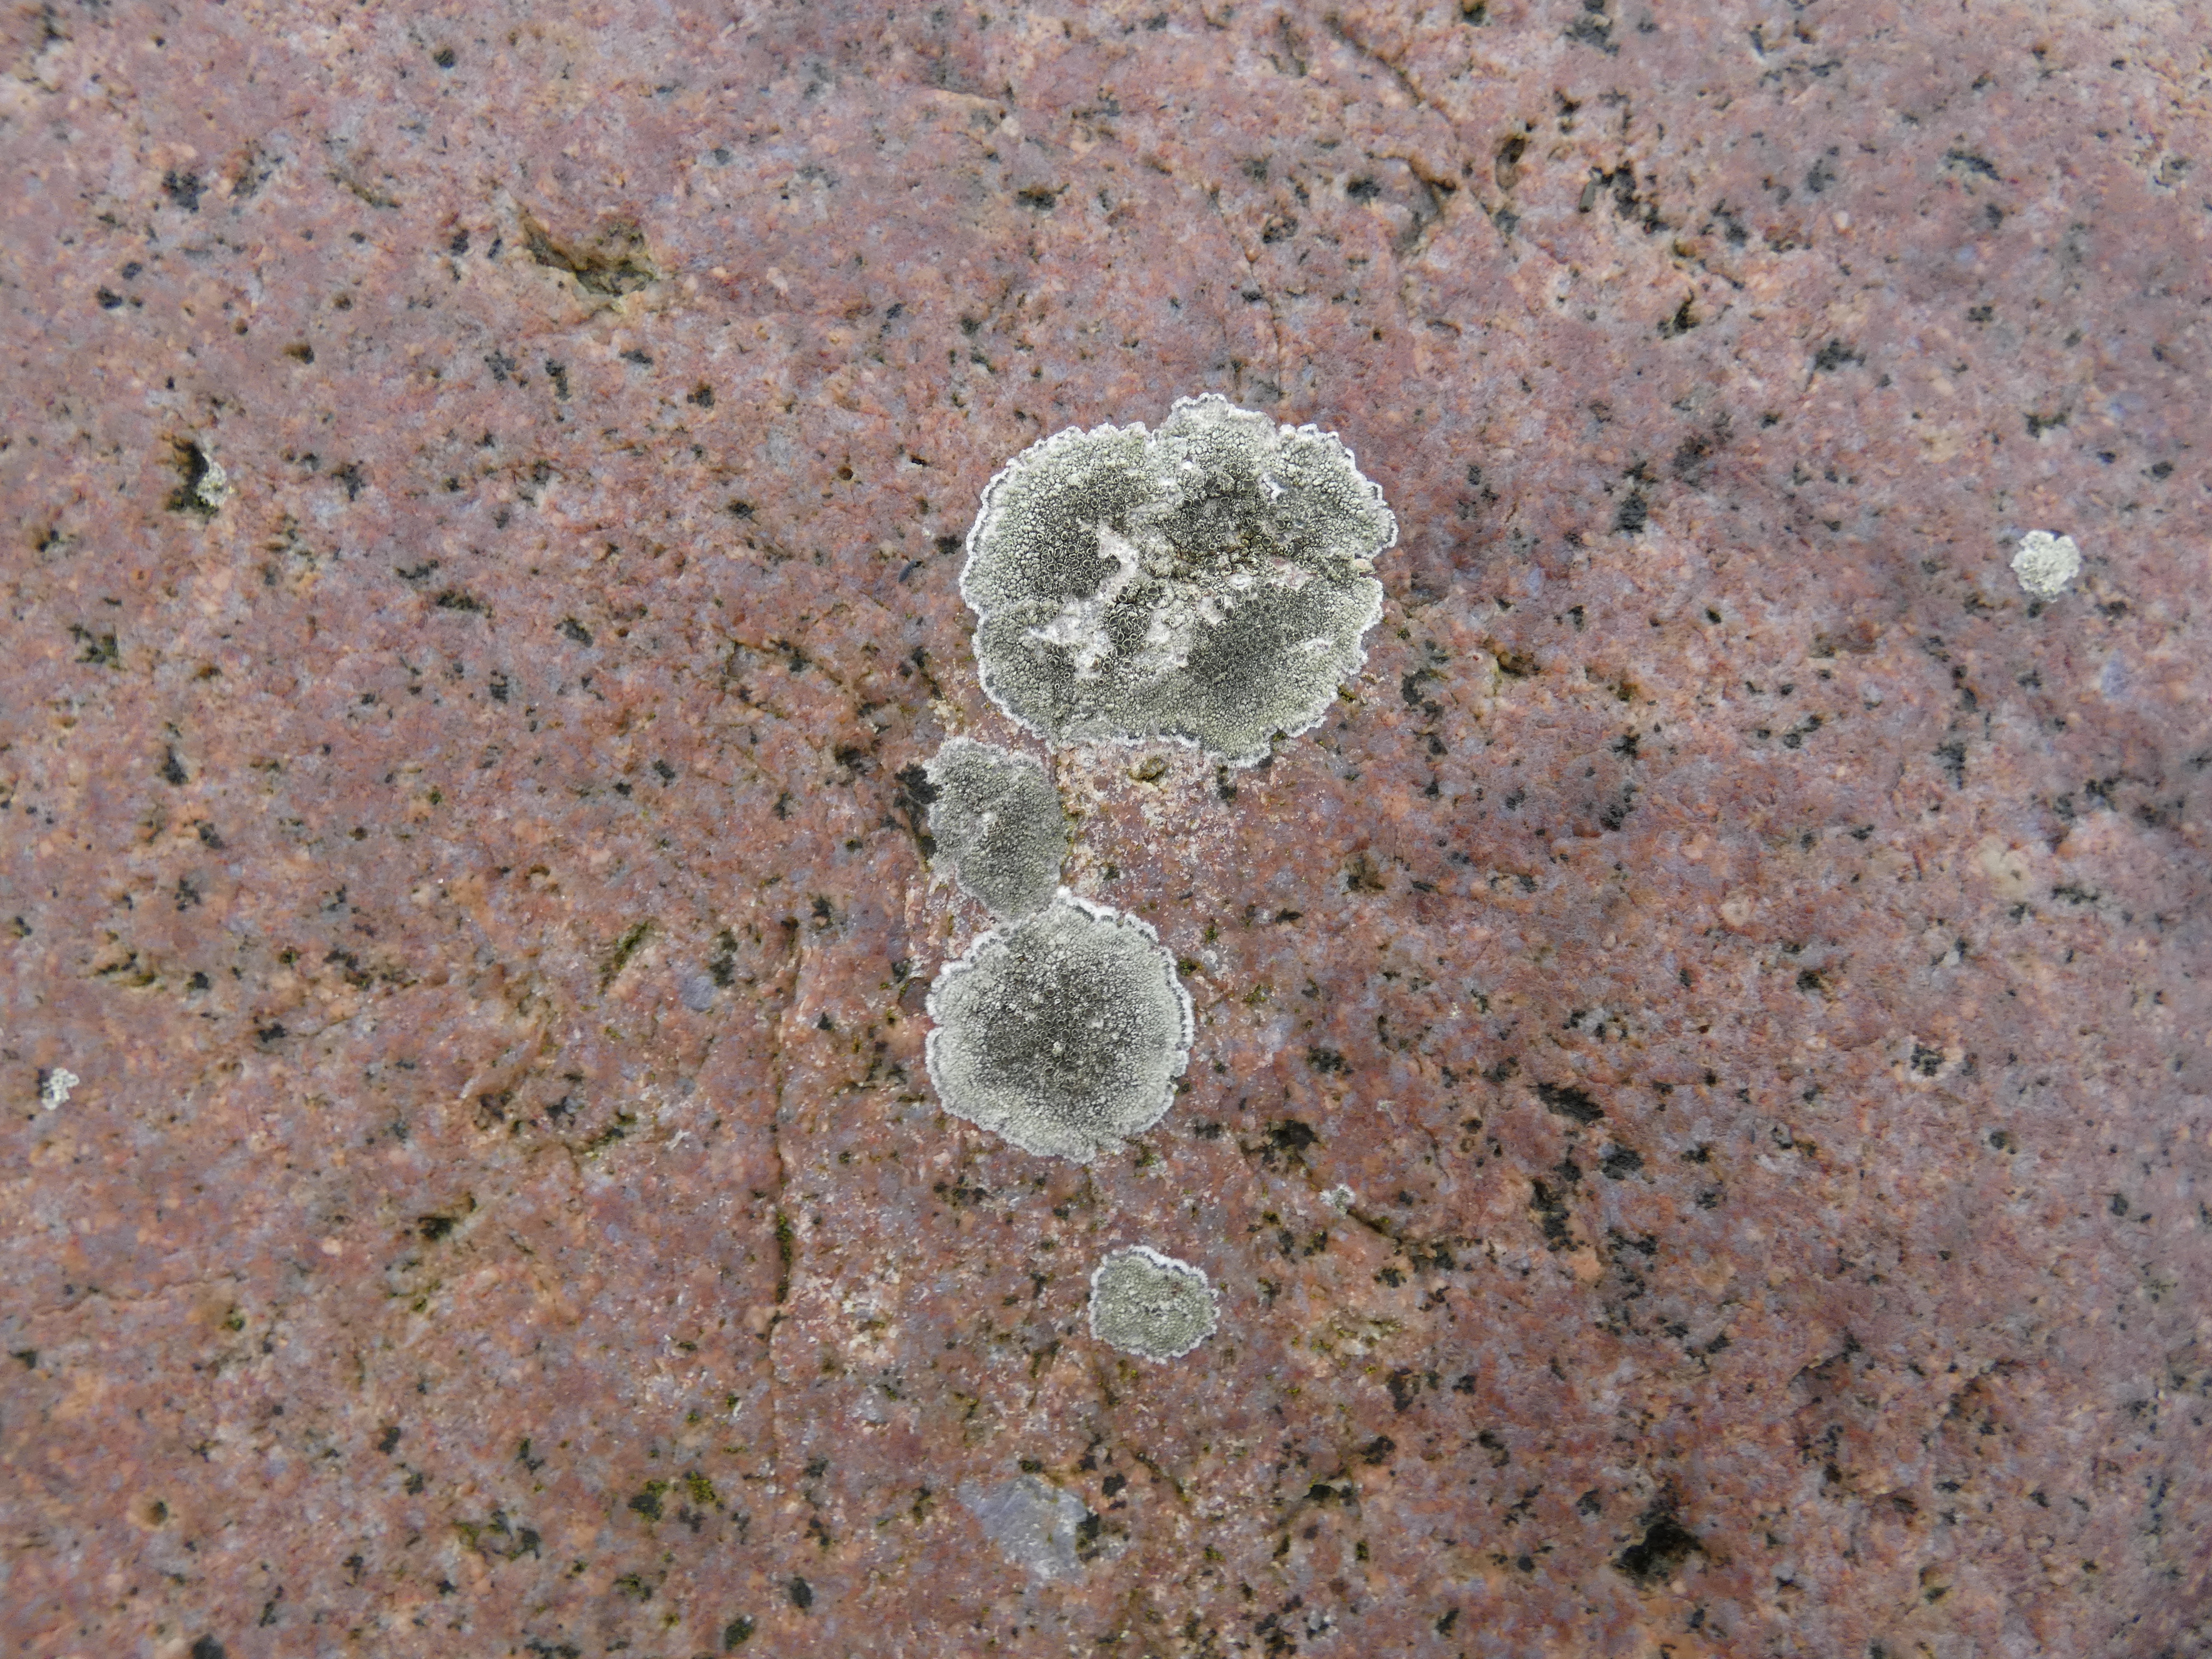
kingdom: Fungi
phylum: Ascomycota
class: Lecanoromycetes
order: Lecanorales
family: Lecanoraceae
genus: Lecanora
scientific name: Lecanora helicopis
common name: Salt-kantskivelav
